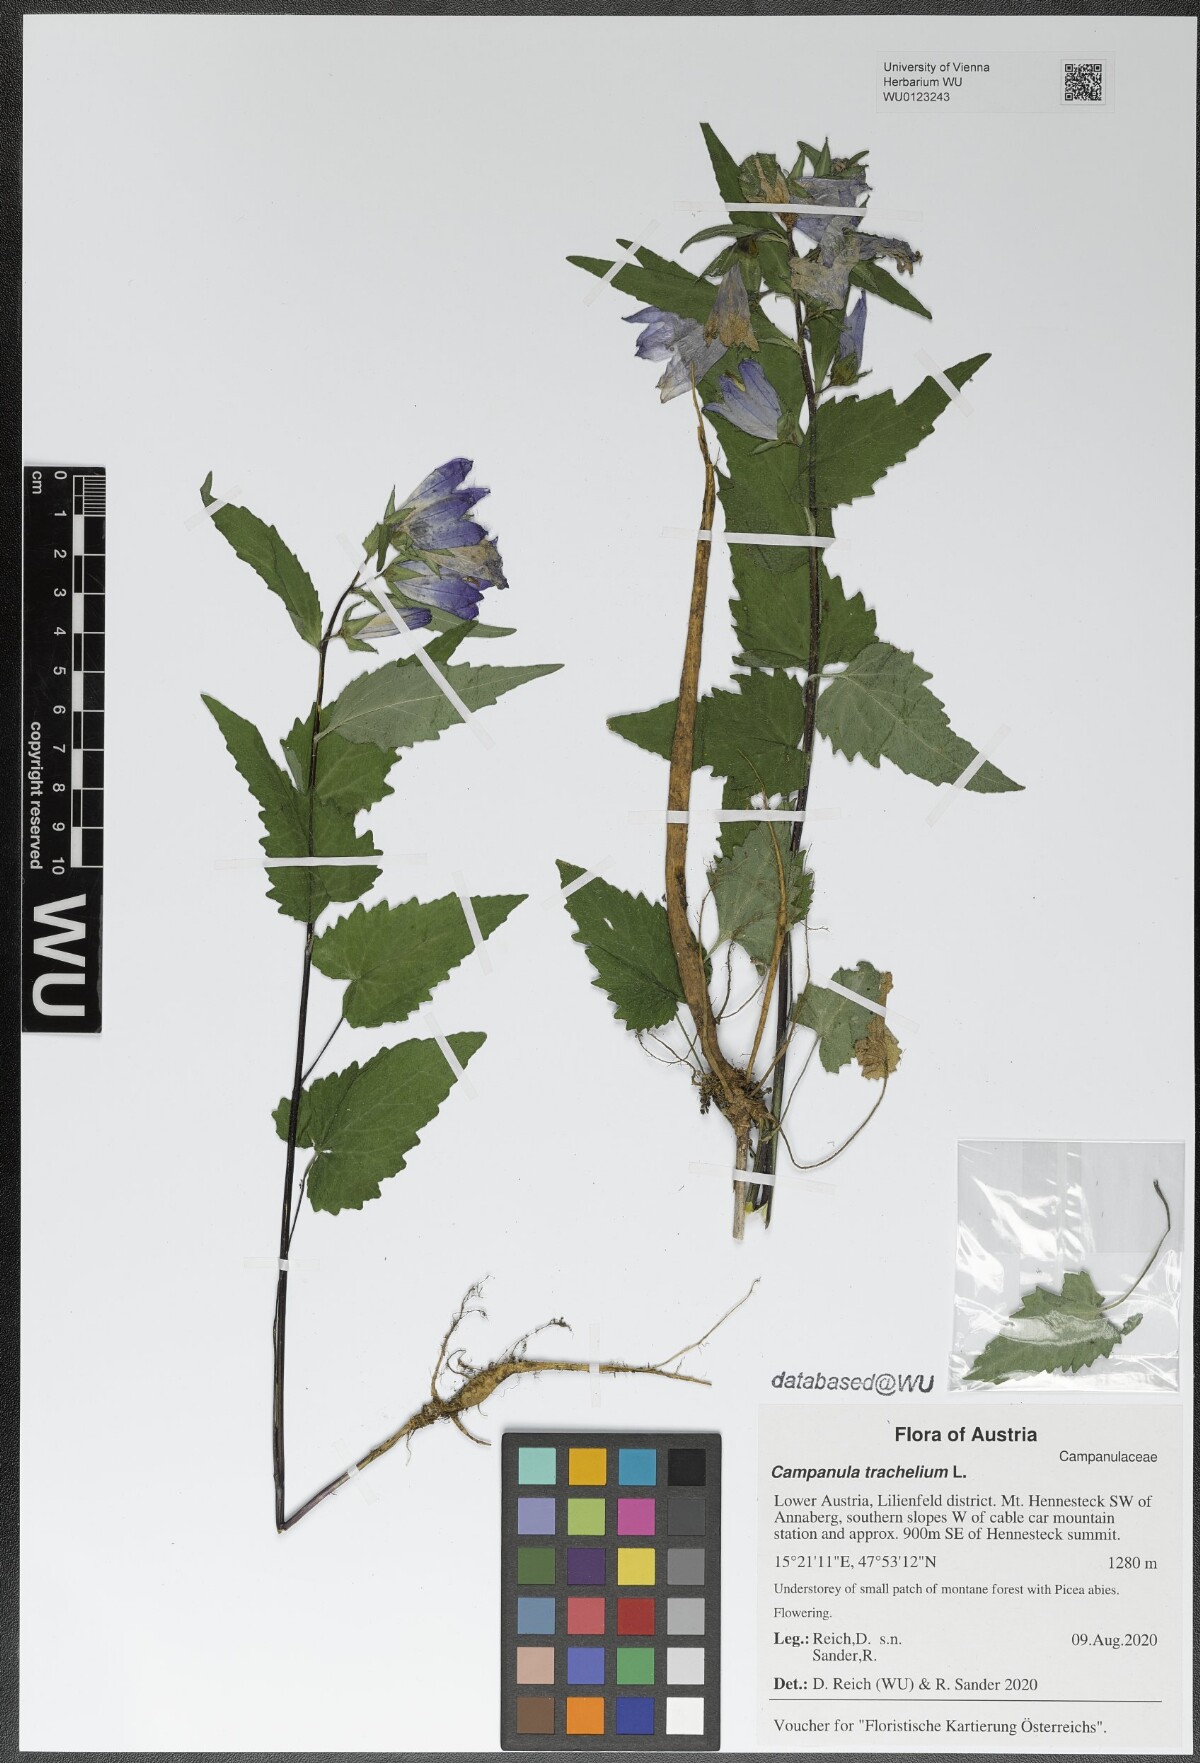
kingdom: Plantae
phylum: Tracheophyta
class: Magnoliopsida
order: Asterales
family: Campanulaceae
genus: Campanula
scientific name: Campanula trachelium
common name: Nettle-leaved bellflower
